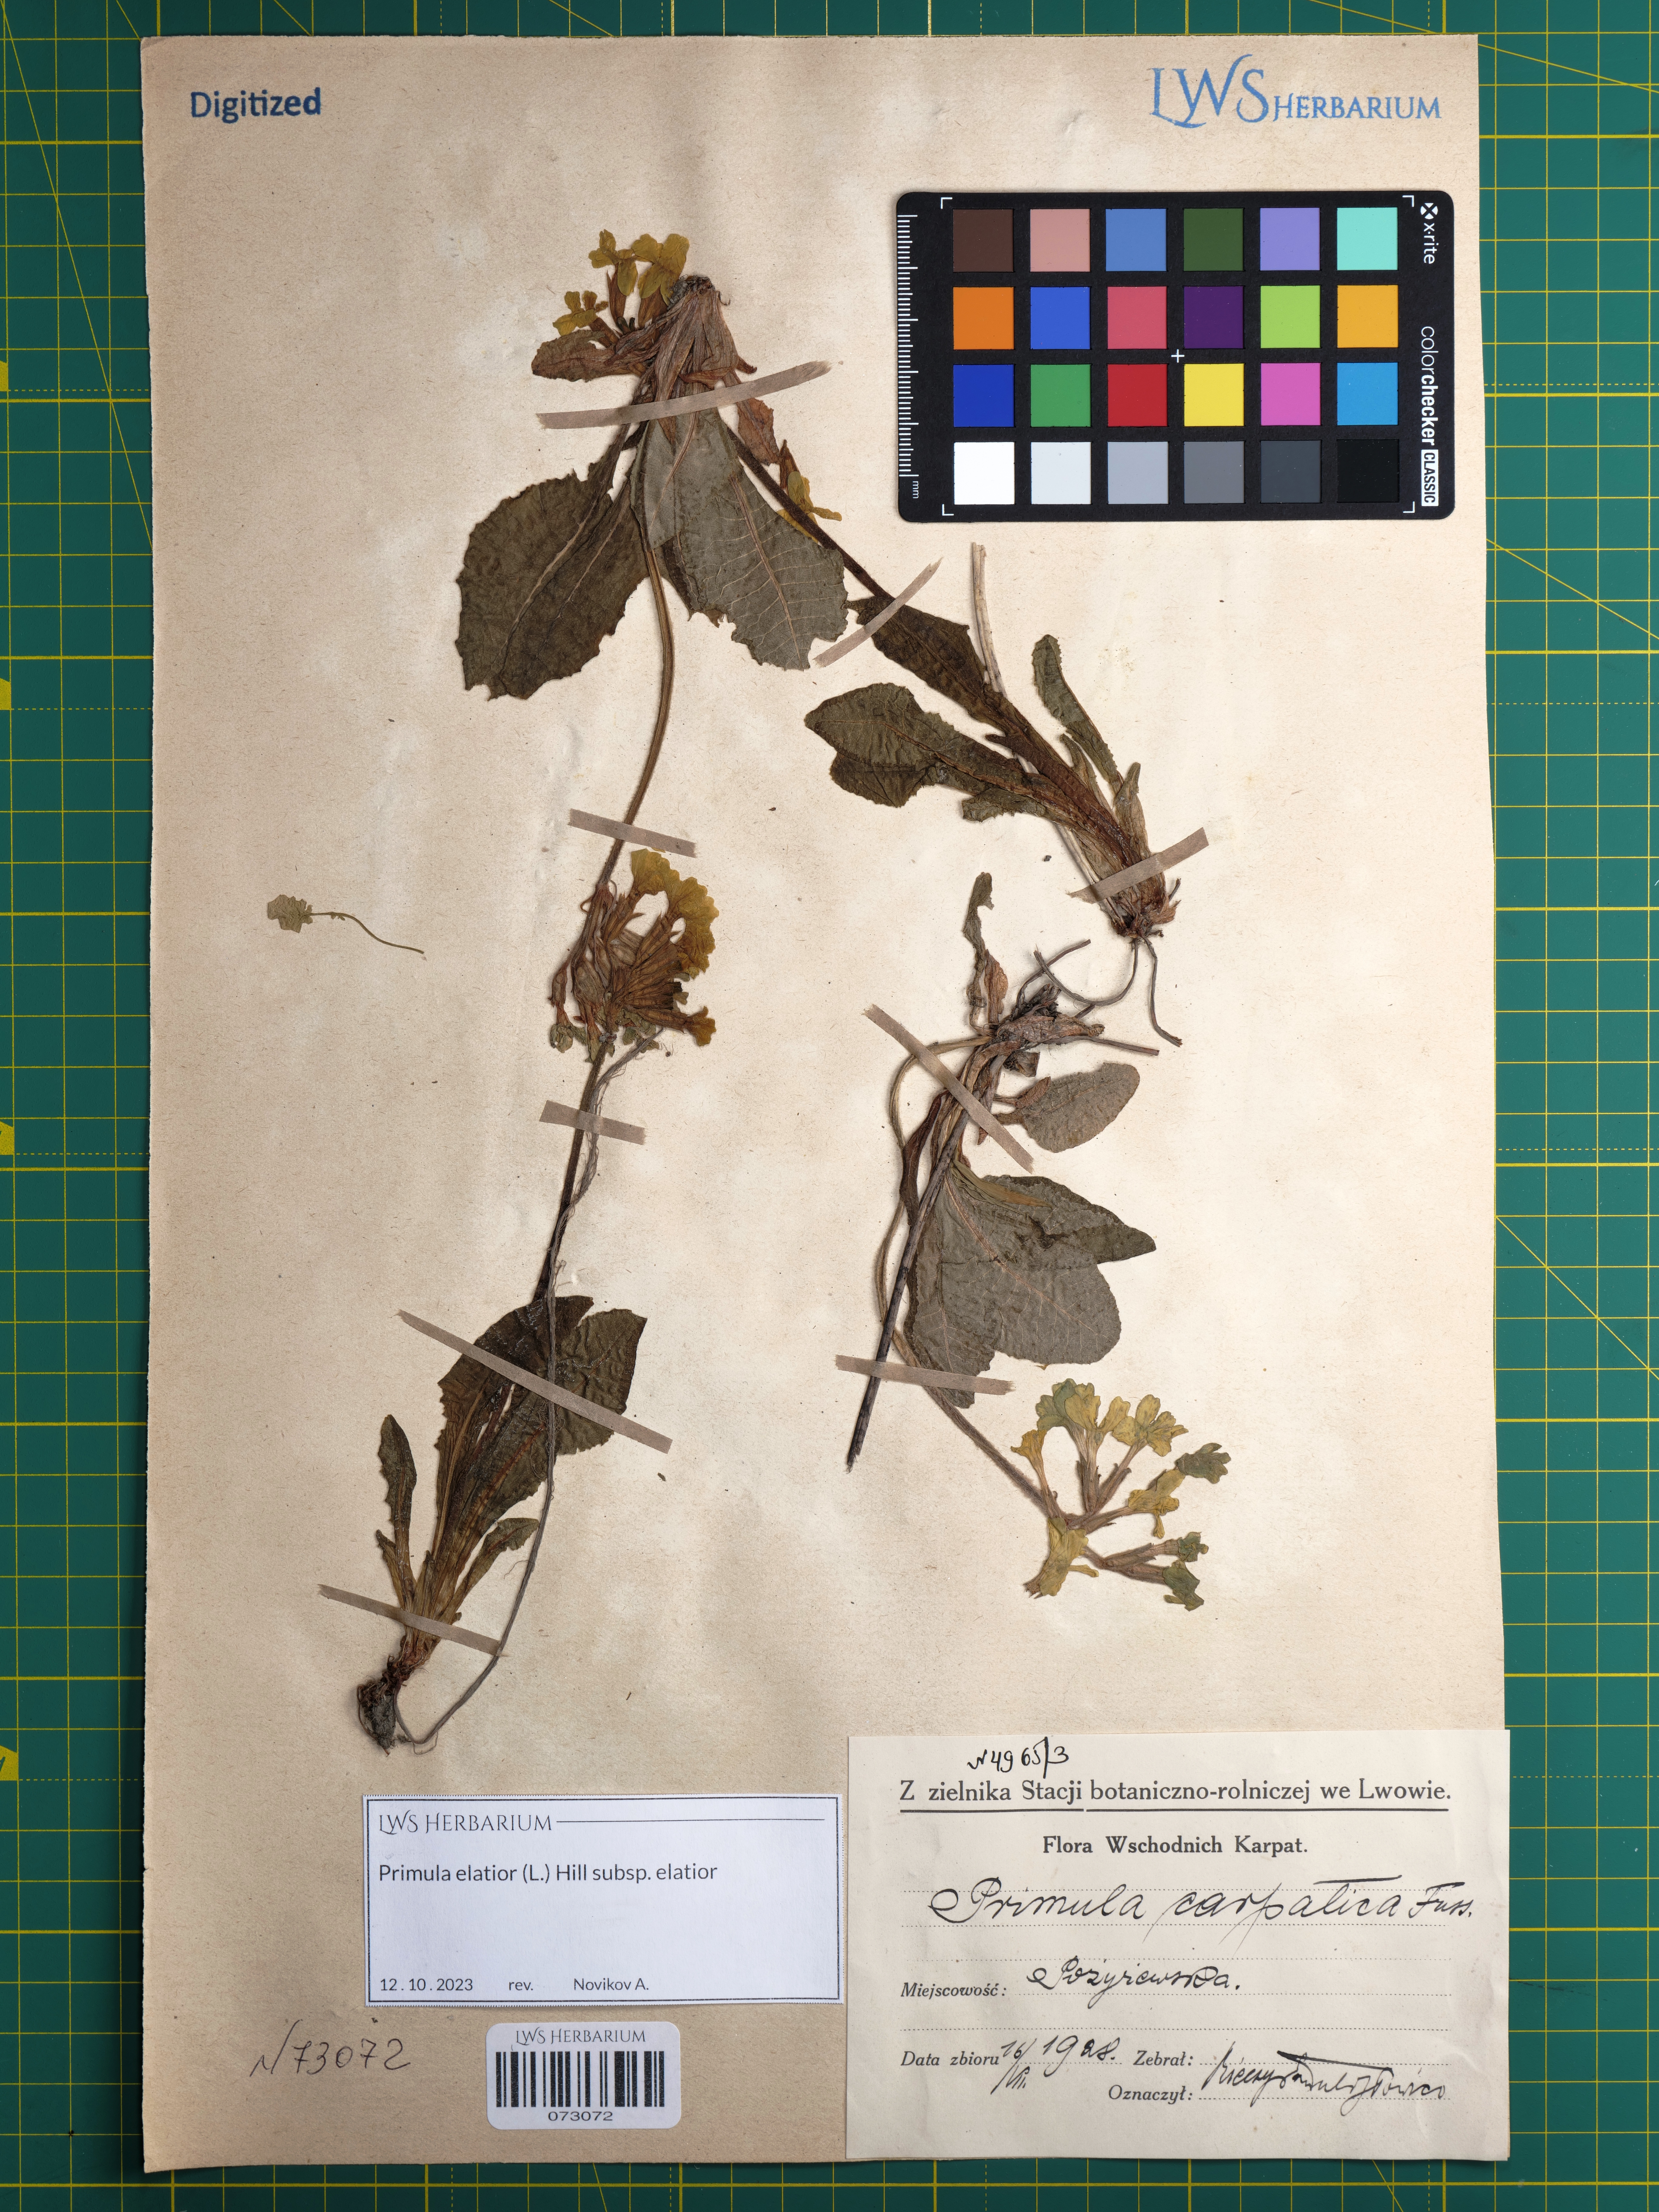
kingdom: Plantae
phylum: Tracheophyta
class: Magnoliopsida
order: Ericales
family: Primulaceae
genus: Primula
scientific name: Primula elatior
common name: Oxlip
